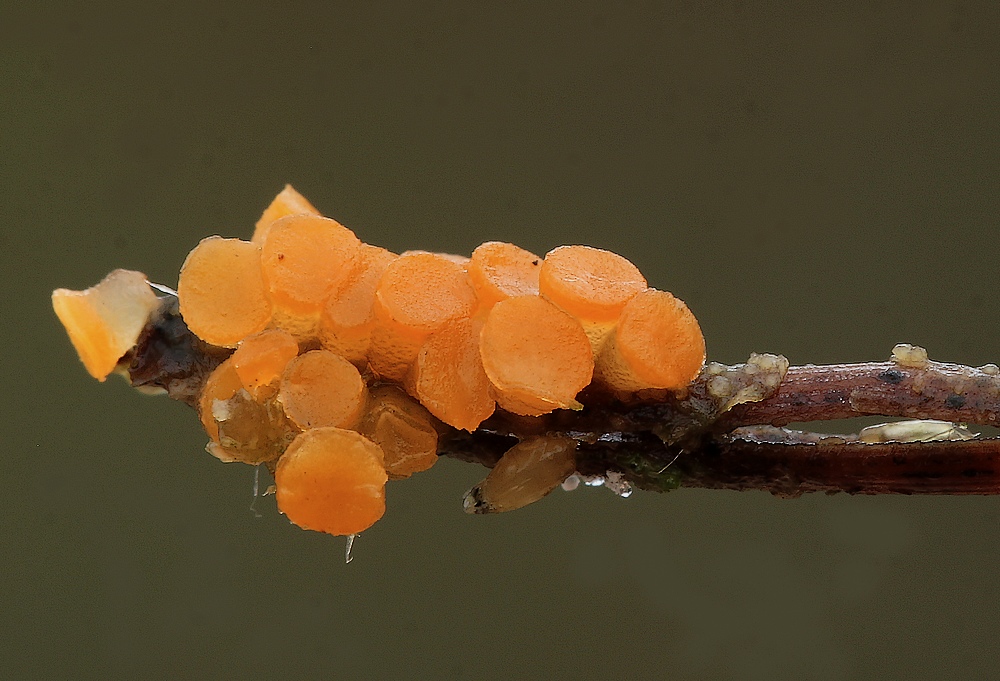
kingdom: Fungi
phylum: Ascomycota
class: Pezizomycetes
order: Pezizales
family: Pyronemataceae
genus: Byssonectria
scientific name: Byssonectria terrestris
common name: hjortebæger
